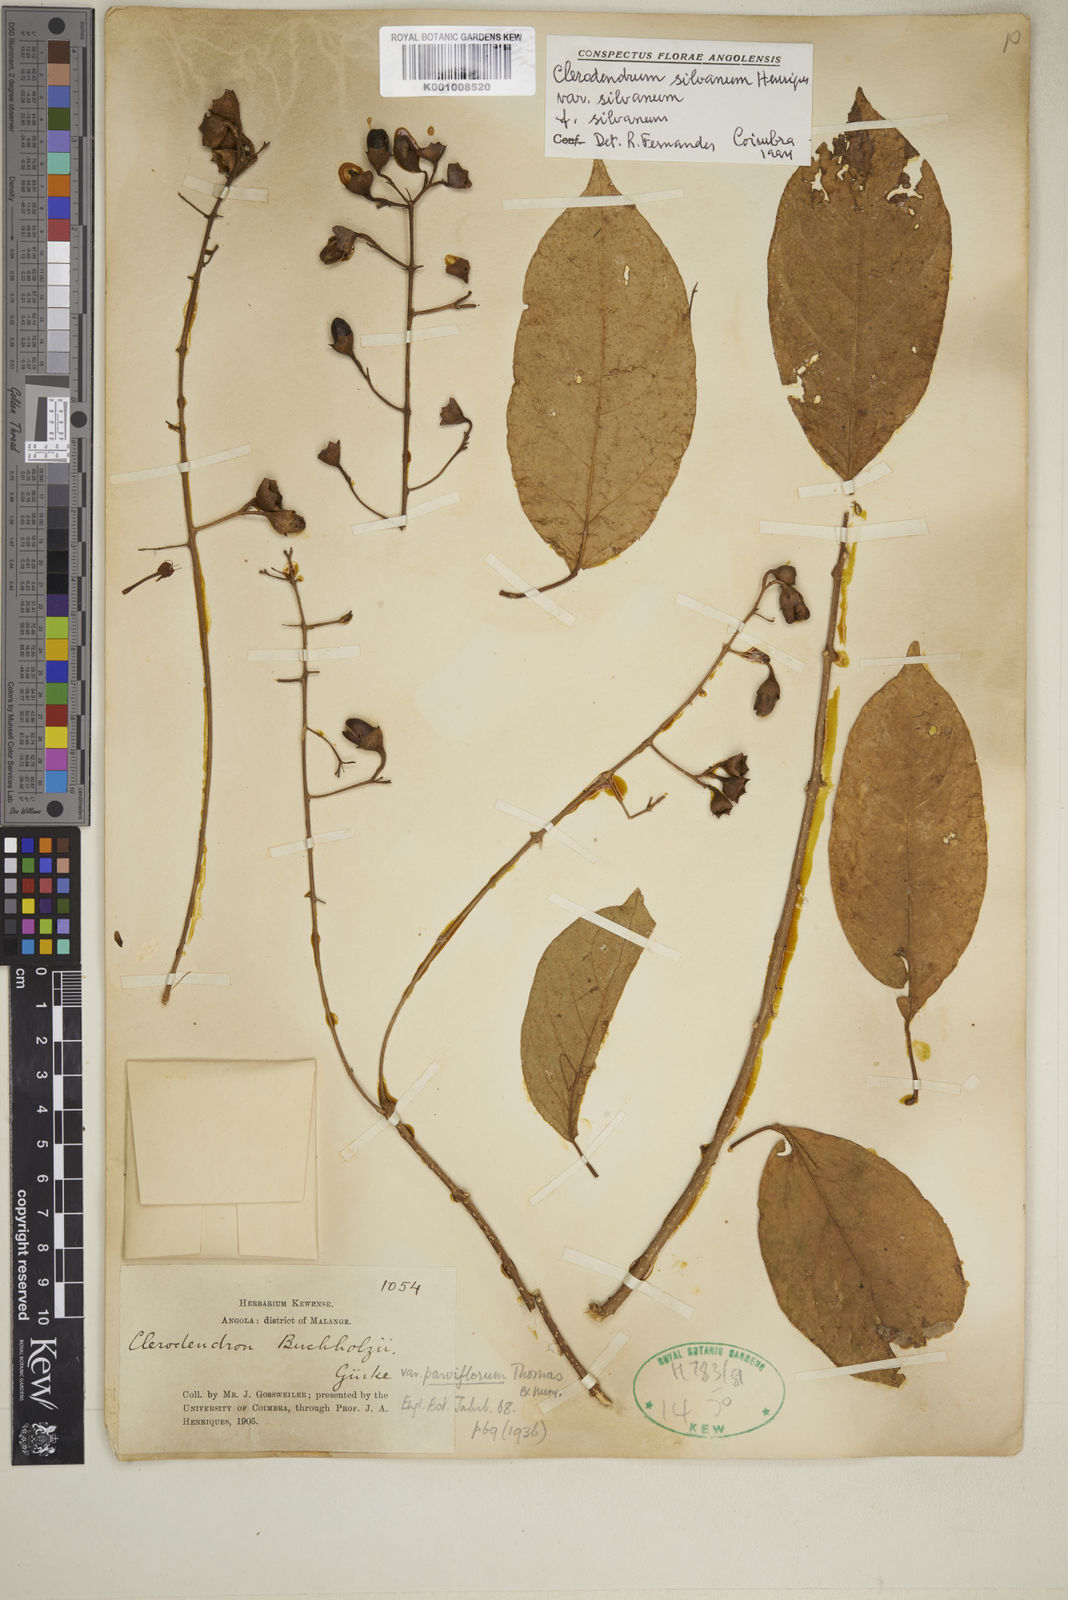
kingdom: Plantae
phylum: Tracheophyta
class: Magnoliopsida
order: Lamiales
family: Lamiaceae
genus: Clerodendrum
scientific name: Clerodendrum silvanum
